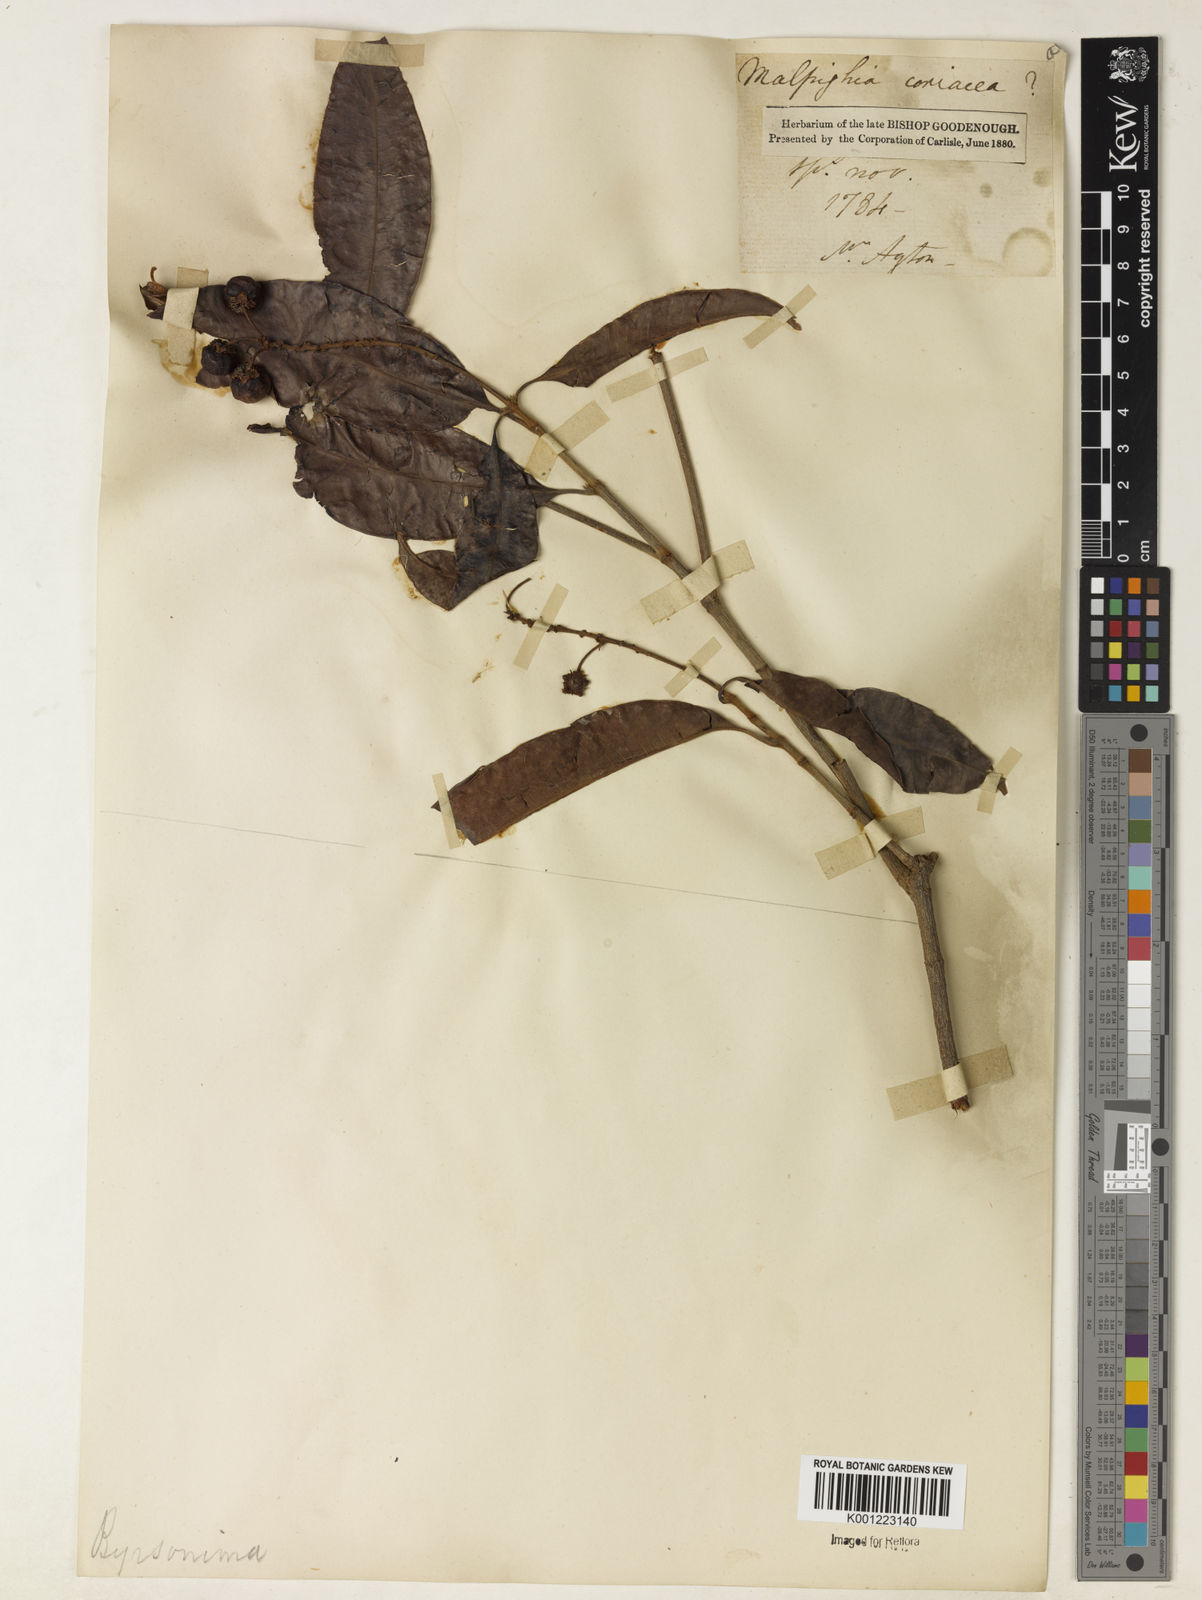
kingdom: Plantae
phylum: Tracheophyta
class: Magnoliopsida
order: Malpighiales
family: Malpighiaceae
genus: Byrsonima
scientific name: Byrsonima
